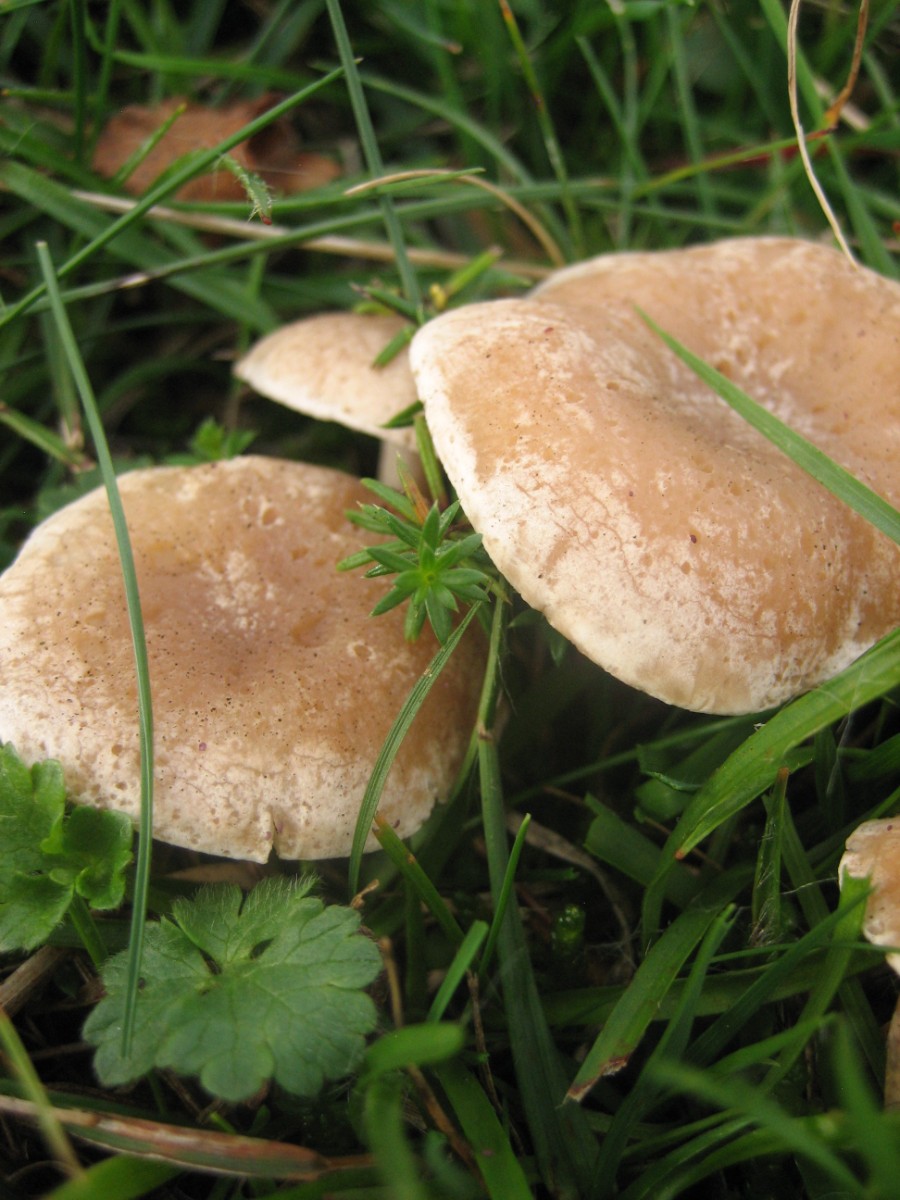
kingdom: Fungi
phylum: Basidiomycota
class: Agaricomycetes
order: Agaricales
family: Tricholomataceae
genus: Clitocybe
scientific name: Clitocybe
